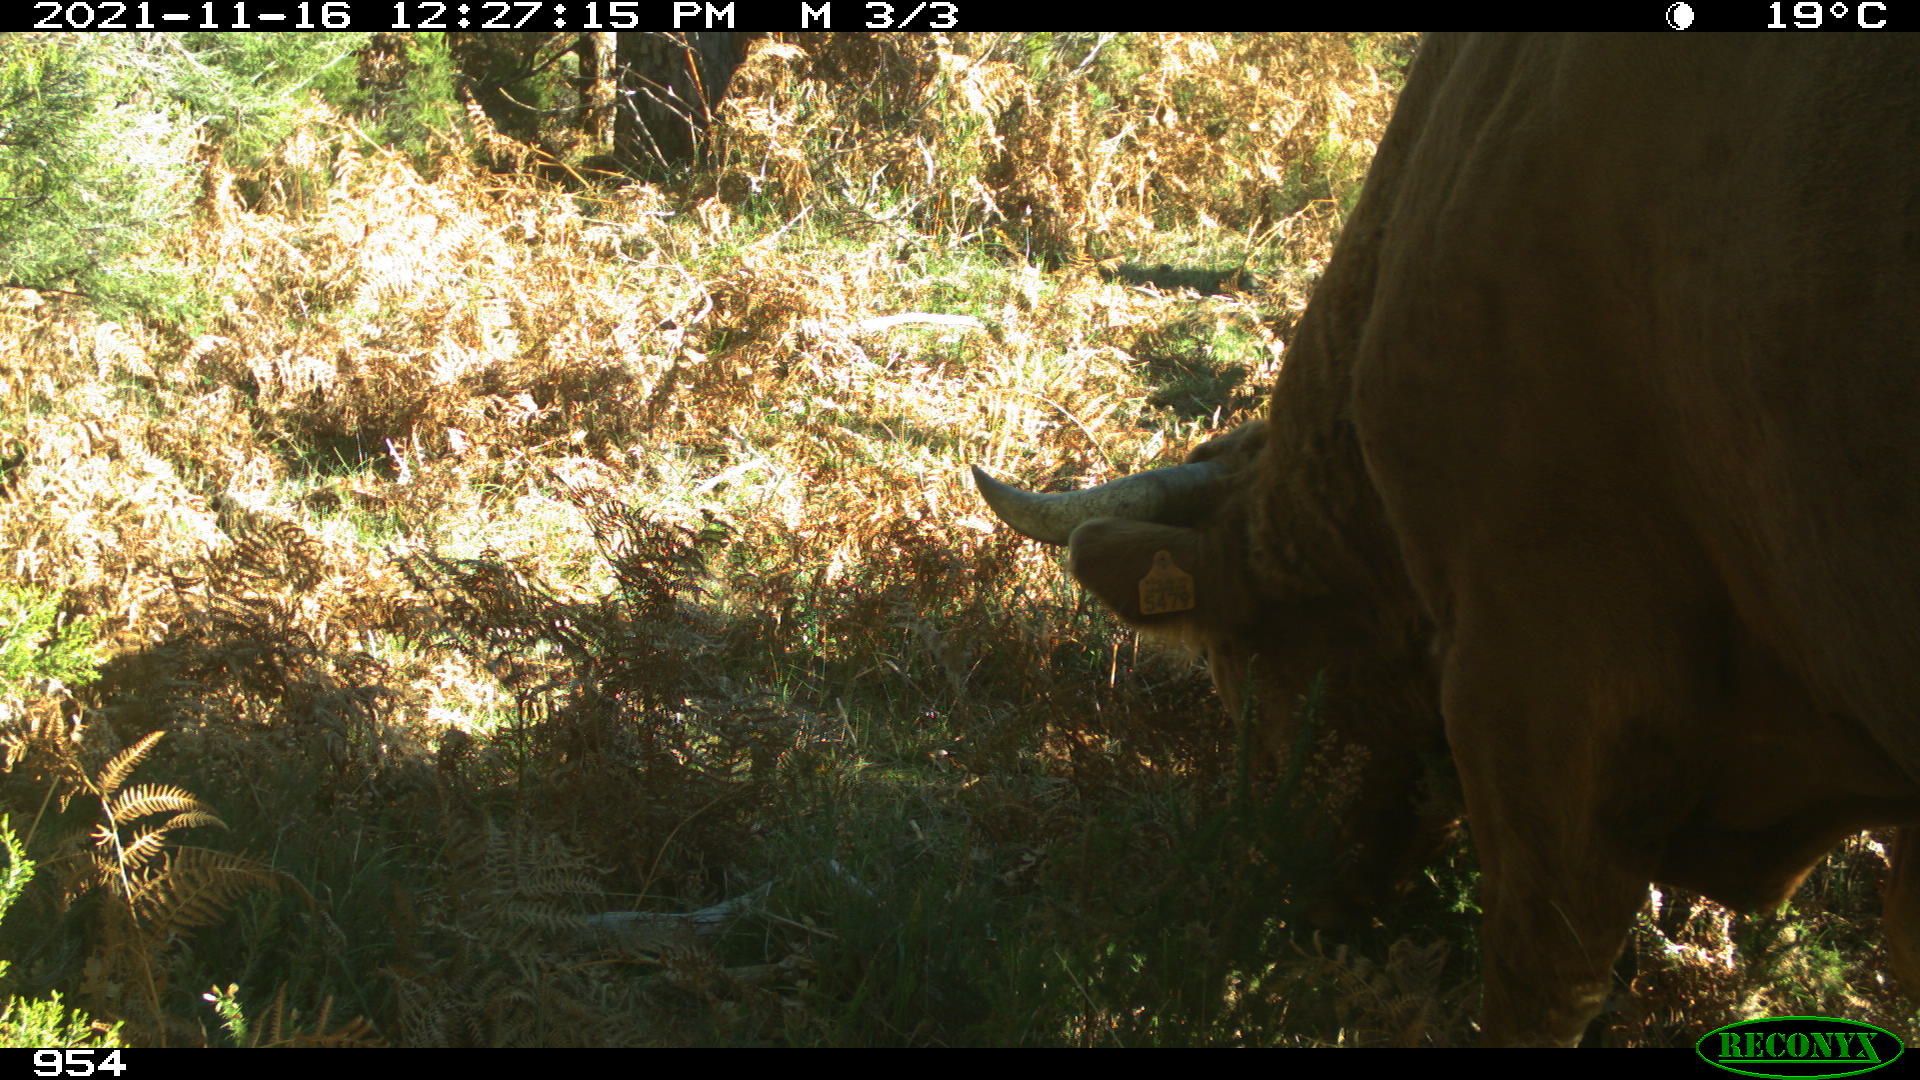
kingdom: Animalia
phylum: Chordata
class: Mammalia
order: Artiodactyla
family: Bovidae
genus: Bos
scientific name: Bos taurus
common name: Domesticated cattle
